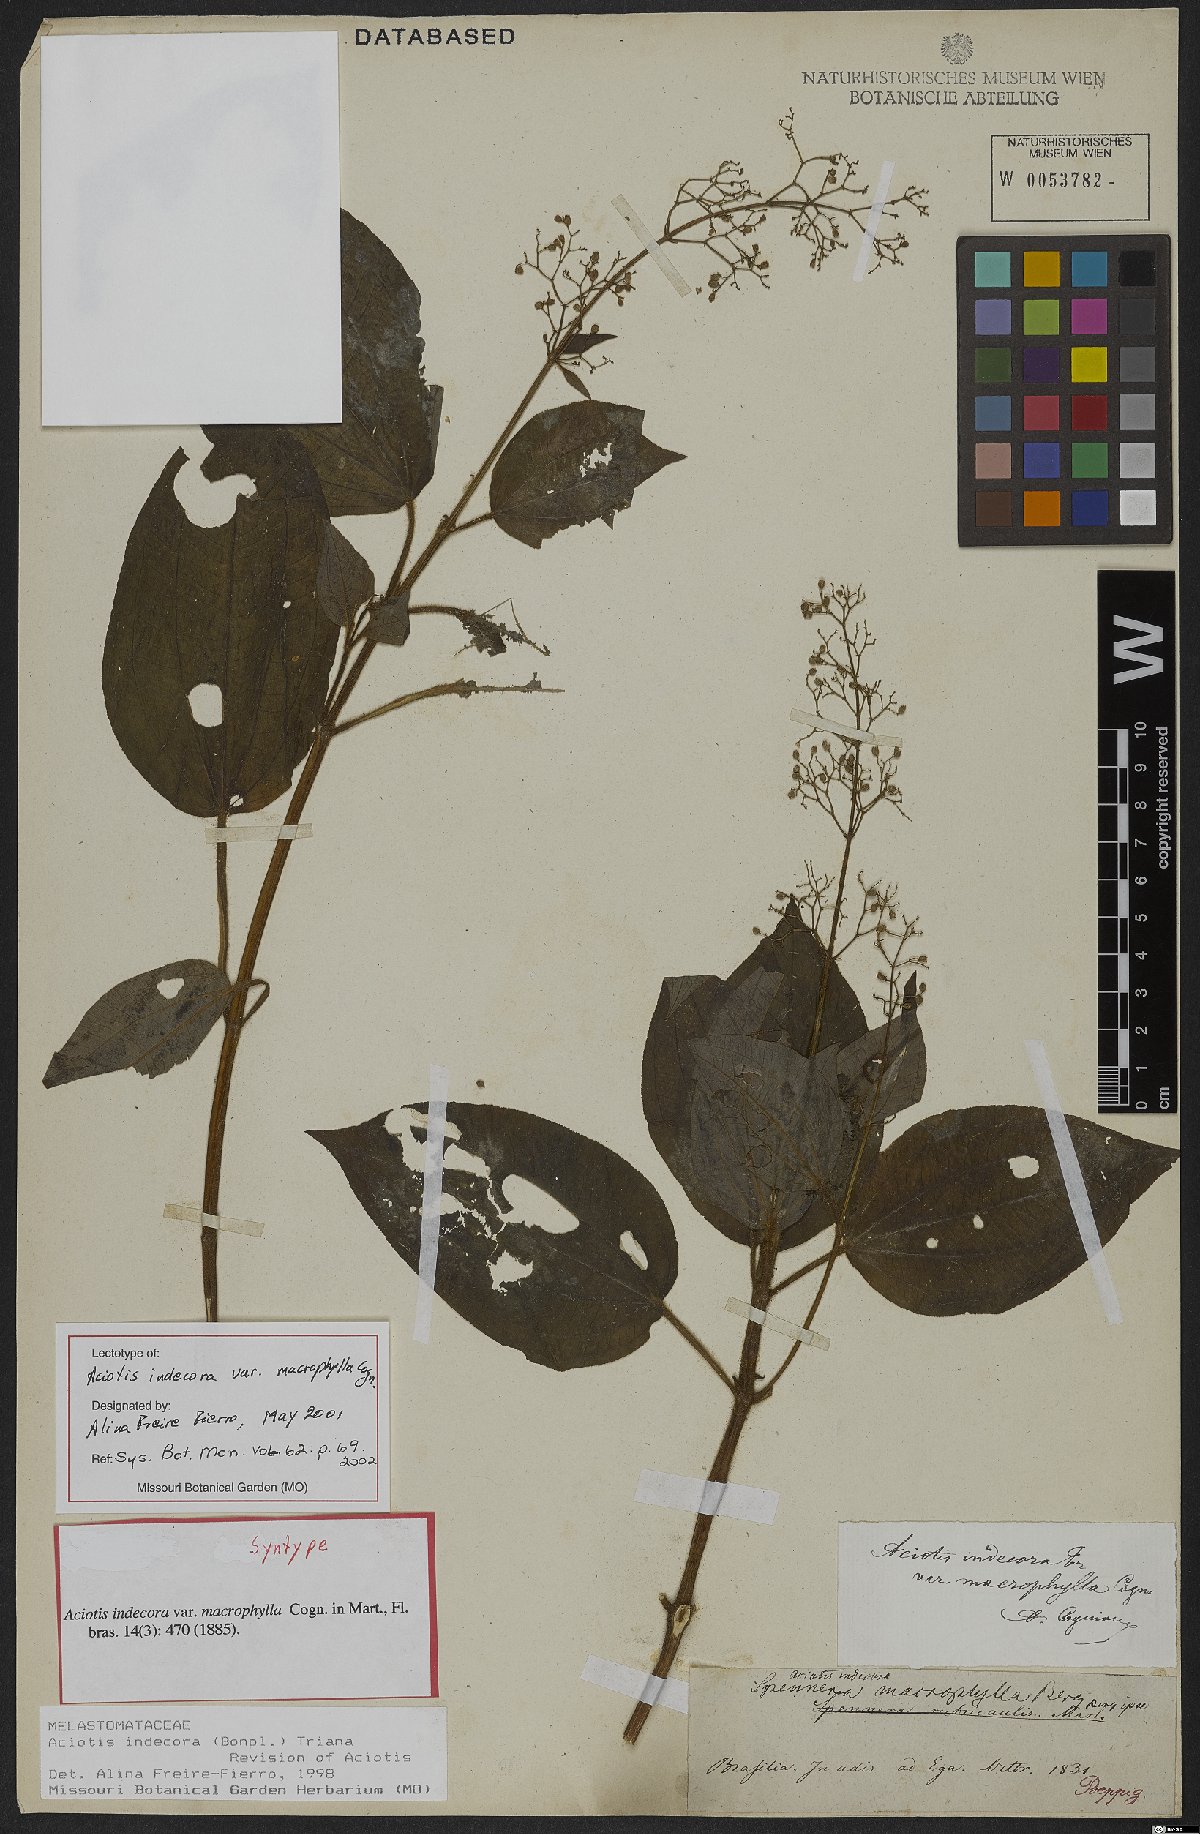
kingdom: Plantae
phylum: Tracheophyta
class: Magnoliopsida
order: Myrtales
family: Melastomataceae
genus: Aciotis
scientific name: Aciotis indecora
